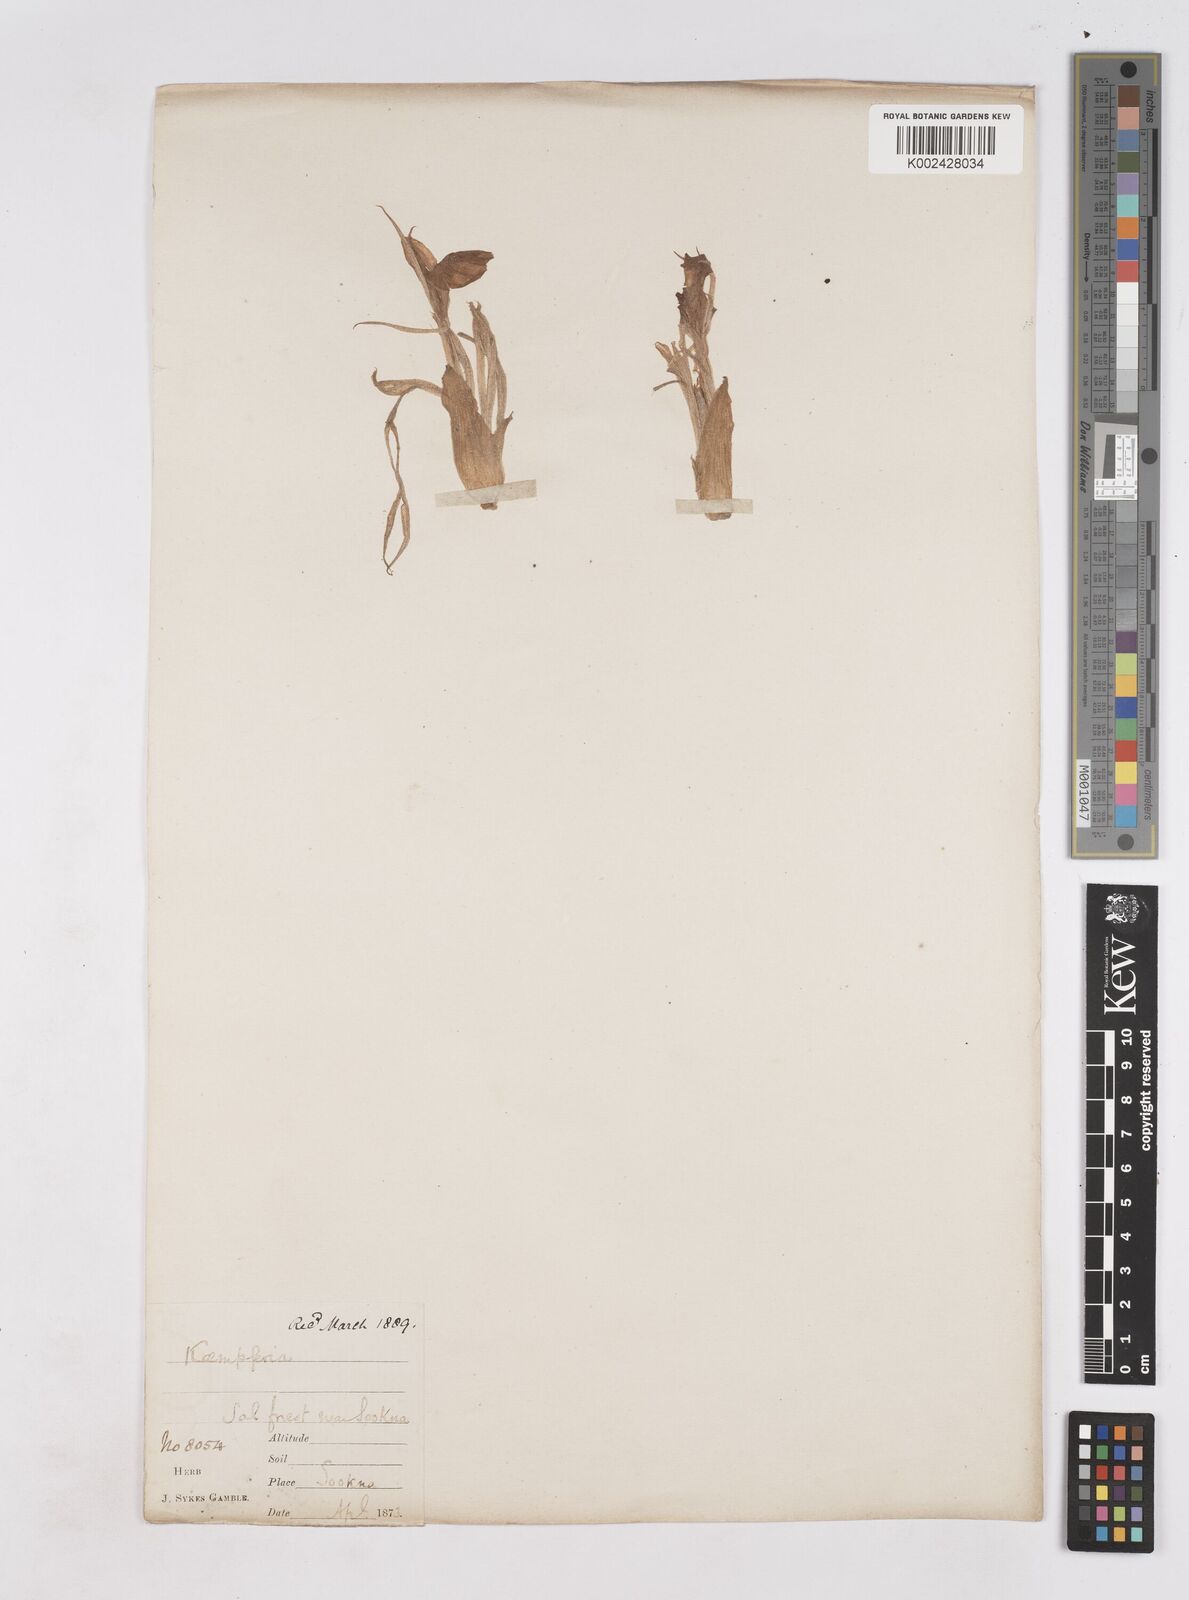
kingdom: Plantae
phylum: Tracheophyta
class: Liliopsida
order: Zingiberales
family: Zingiberaceae
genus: Kaempferia
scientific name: Kaempferia rotunda
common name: Tropical-crocus
